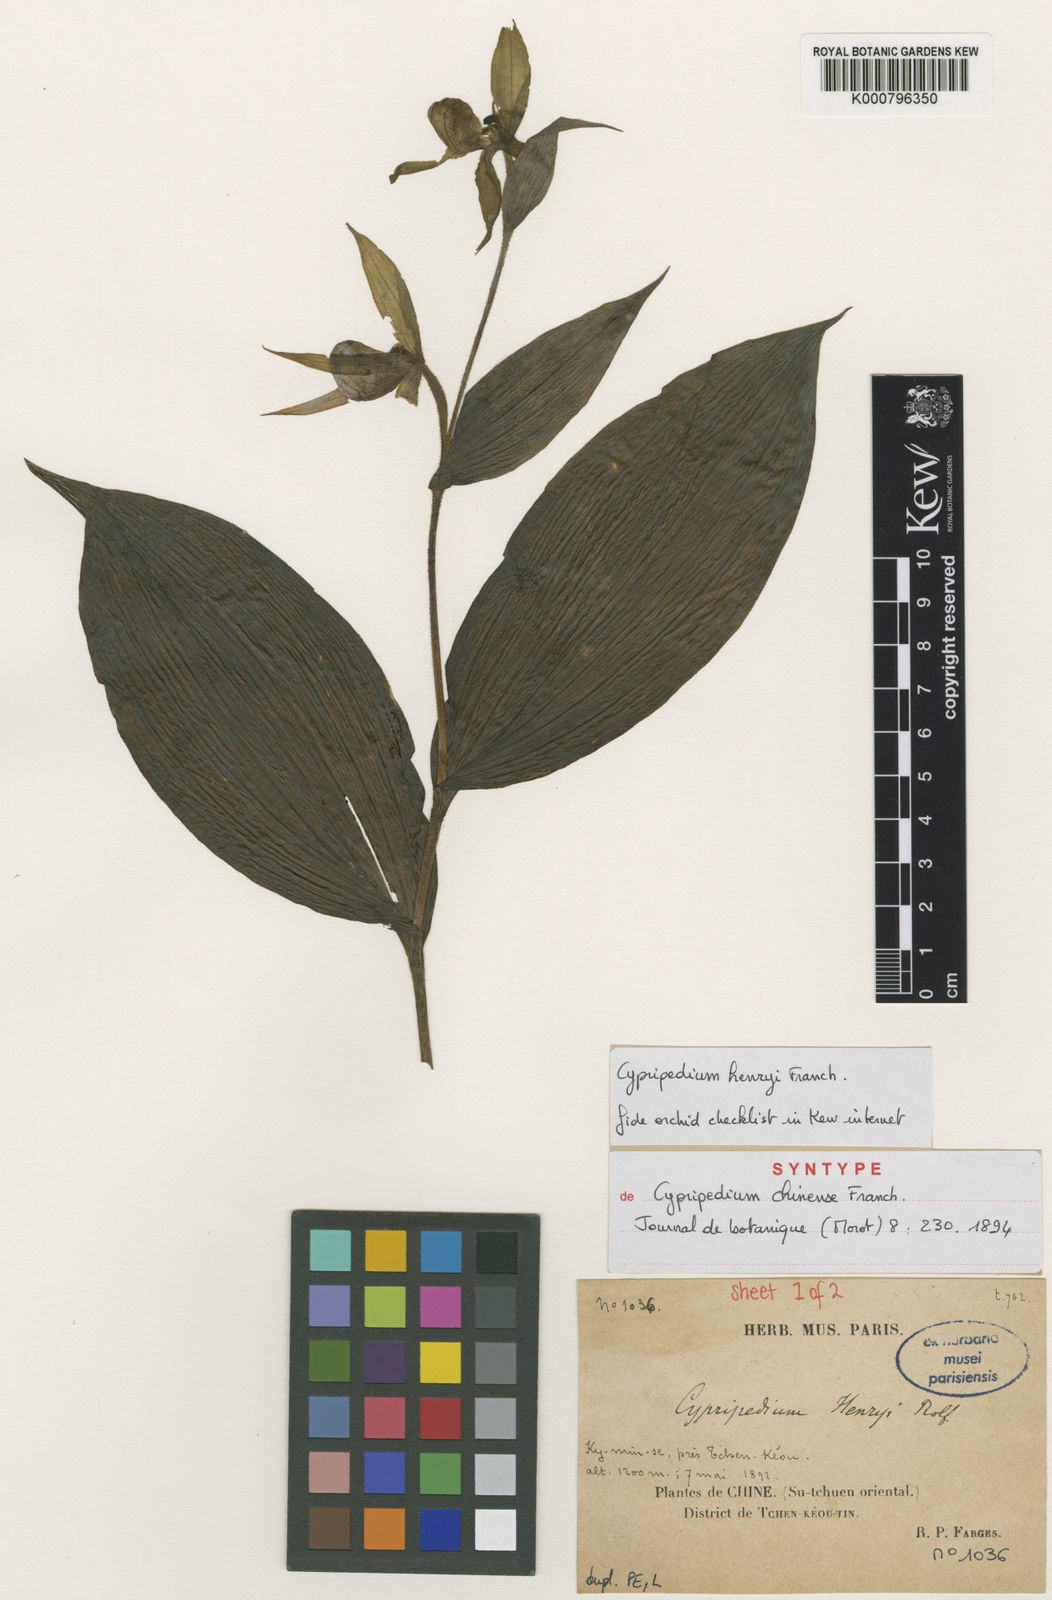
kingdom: Plantae
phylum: Tracheophyta
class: Liliopsida
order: Asparagales
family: Orchidaceae
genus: Cypripedium
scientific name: Cypripedium henryi
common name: Henry's cypripedium
